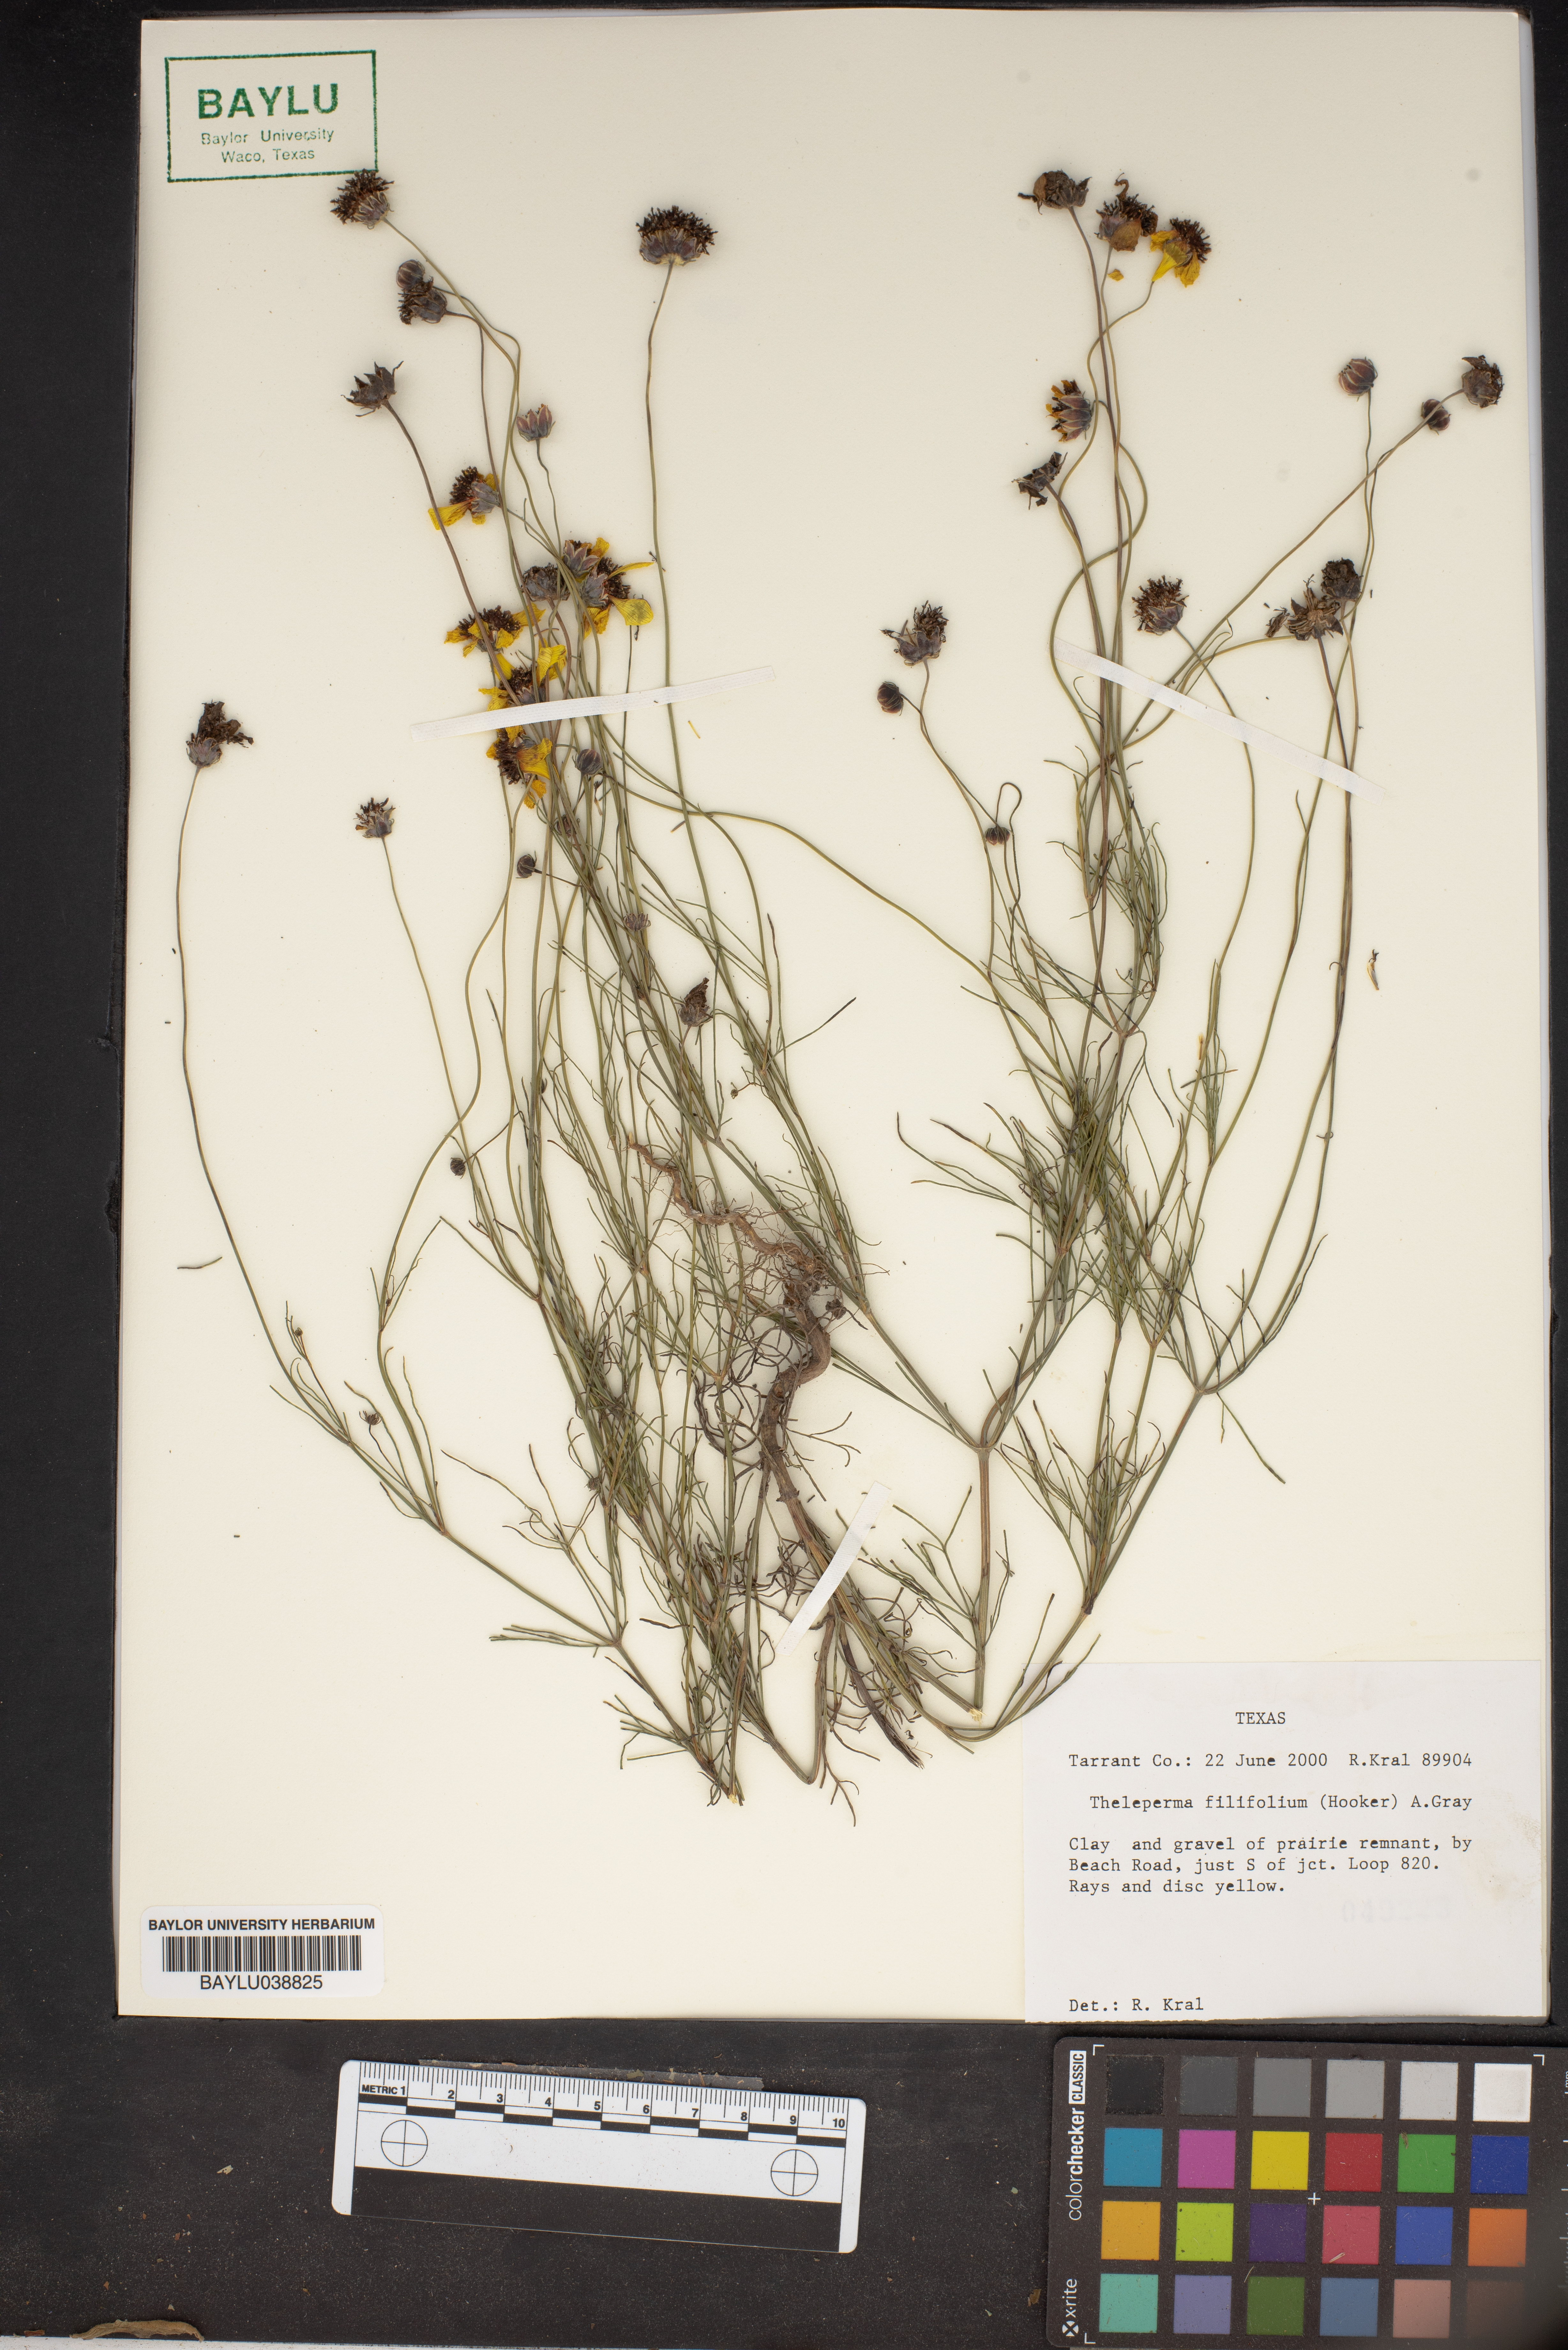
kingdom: Plantae
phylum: Tracheophyta
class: Magnoliopsida
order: Asterales
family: Asteraceae
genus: Thelesperma
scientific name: Thelesperma filifolium
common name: Stiff greenthread
